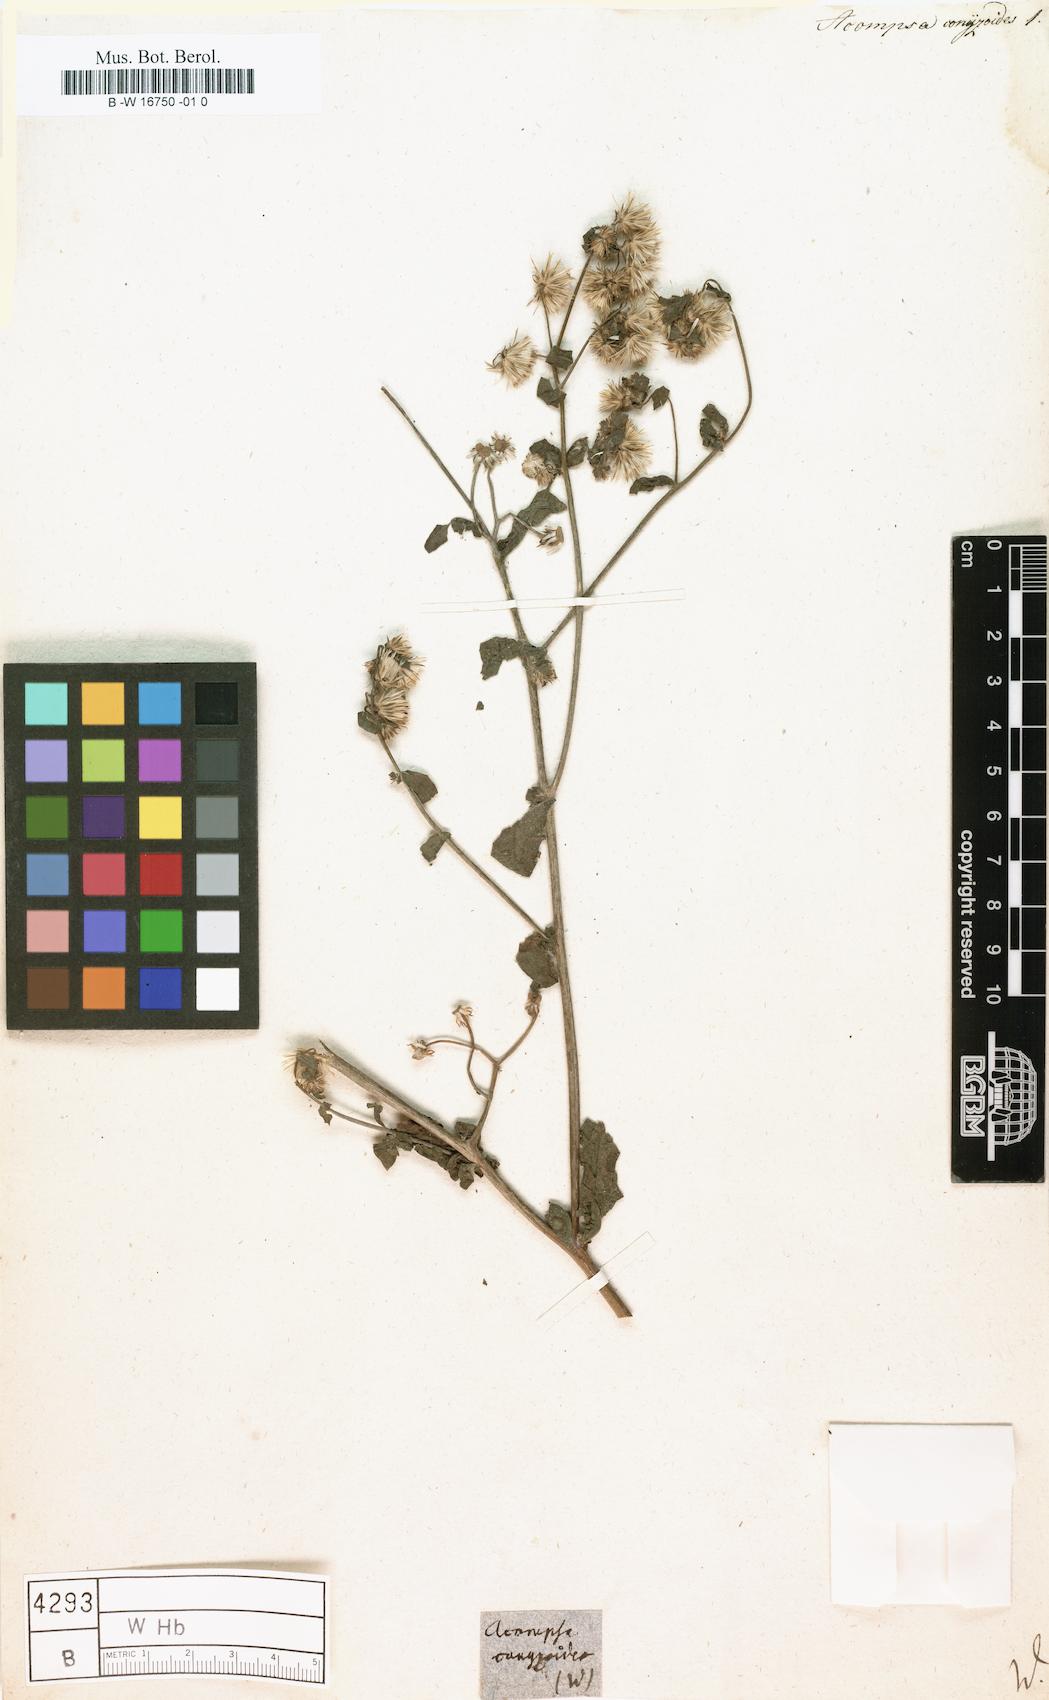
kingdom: Plantae
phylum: Tracheophyta
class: Magnoliopsida
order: Asterales
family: Asteraceae
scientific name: Asteraceae
